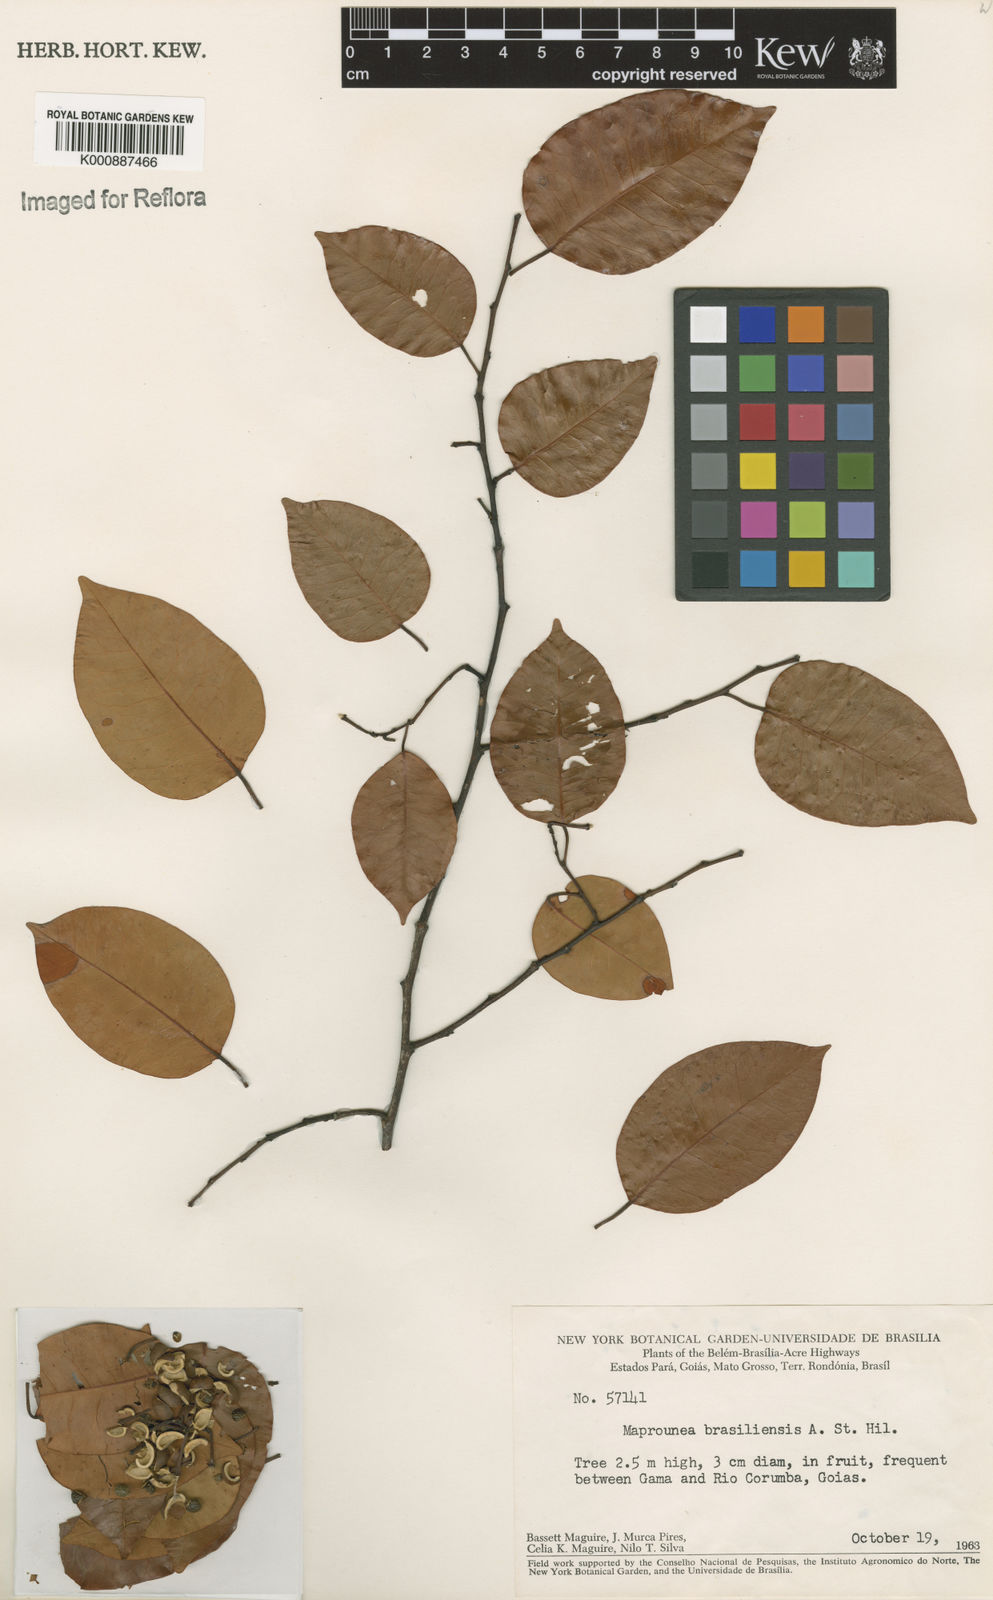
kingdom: Plantae
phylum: Tracheophyta
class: Magnoliopsida
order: Malpighiales
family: Euphorbiaceae
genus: Maprounea
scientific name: Maprounea brasiliensis
